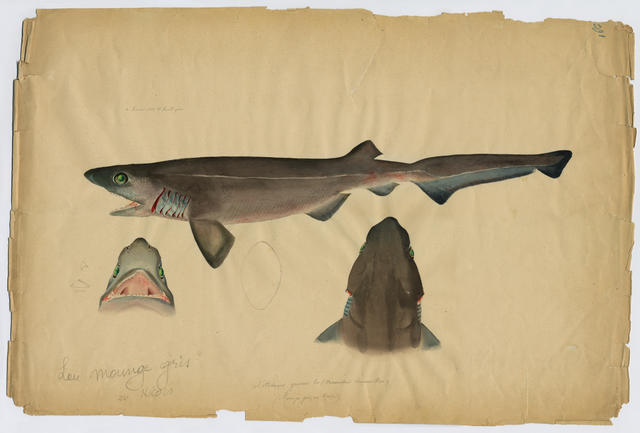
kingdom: Animalia
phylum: Chordata
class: Elasmobranchii
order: Hexanchiformes
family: Hexanchidae
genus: Hexanchus
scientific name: Hexanchus griseus
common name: Bluntnose sixgill shark
